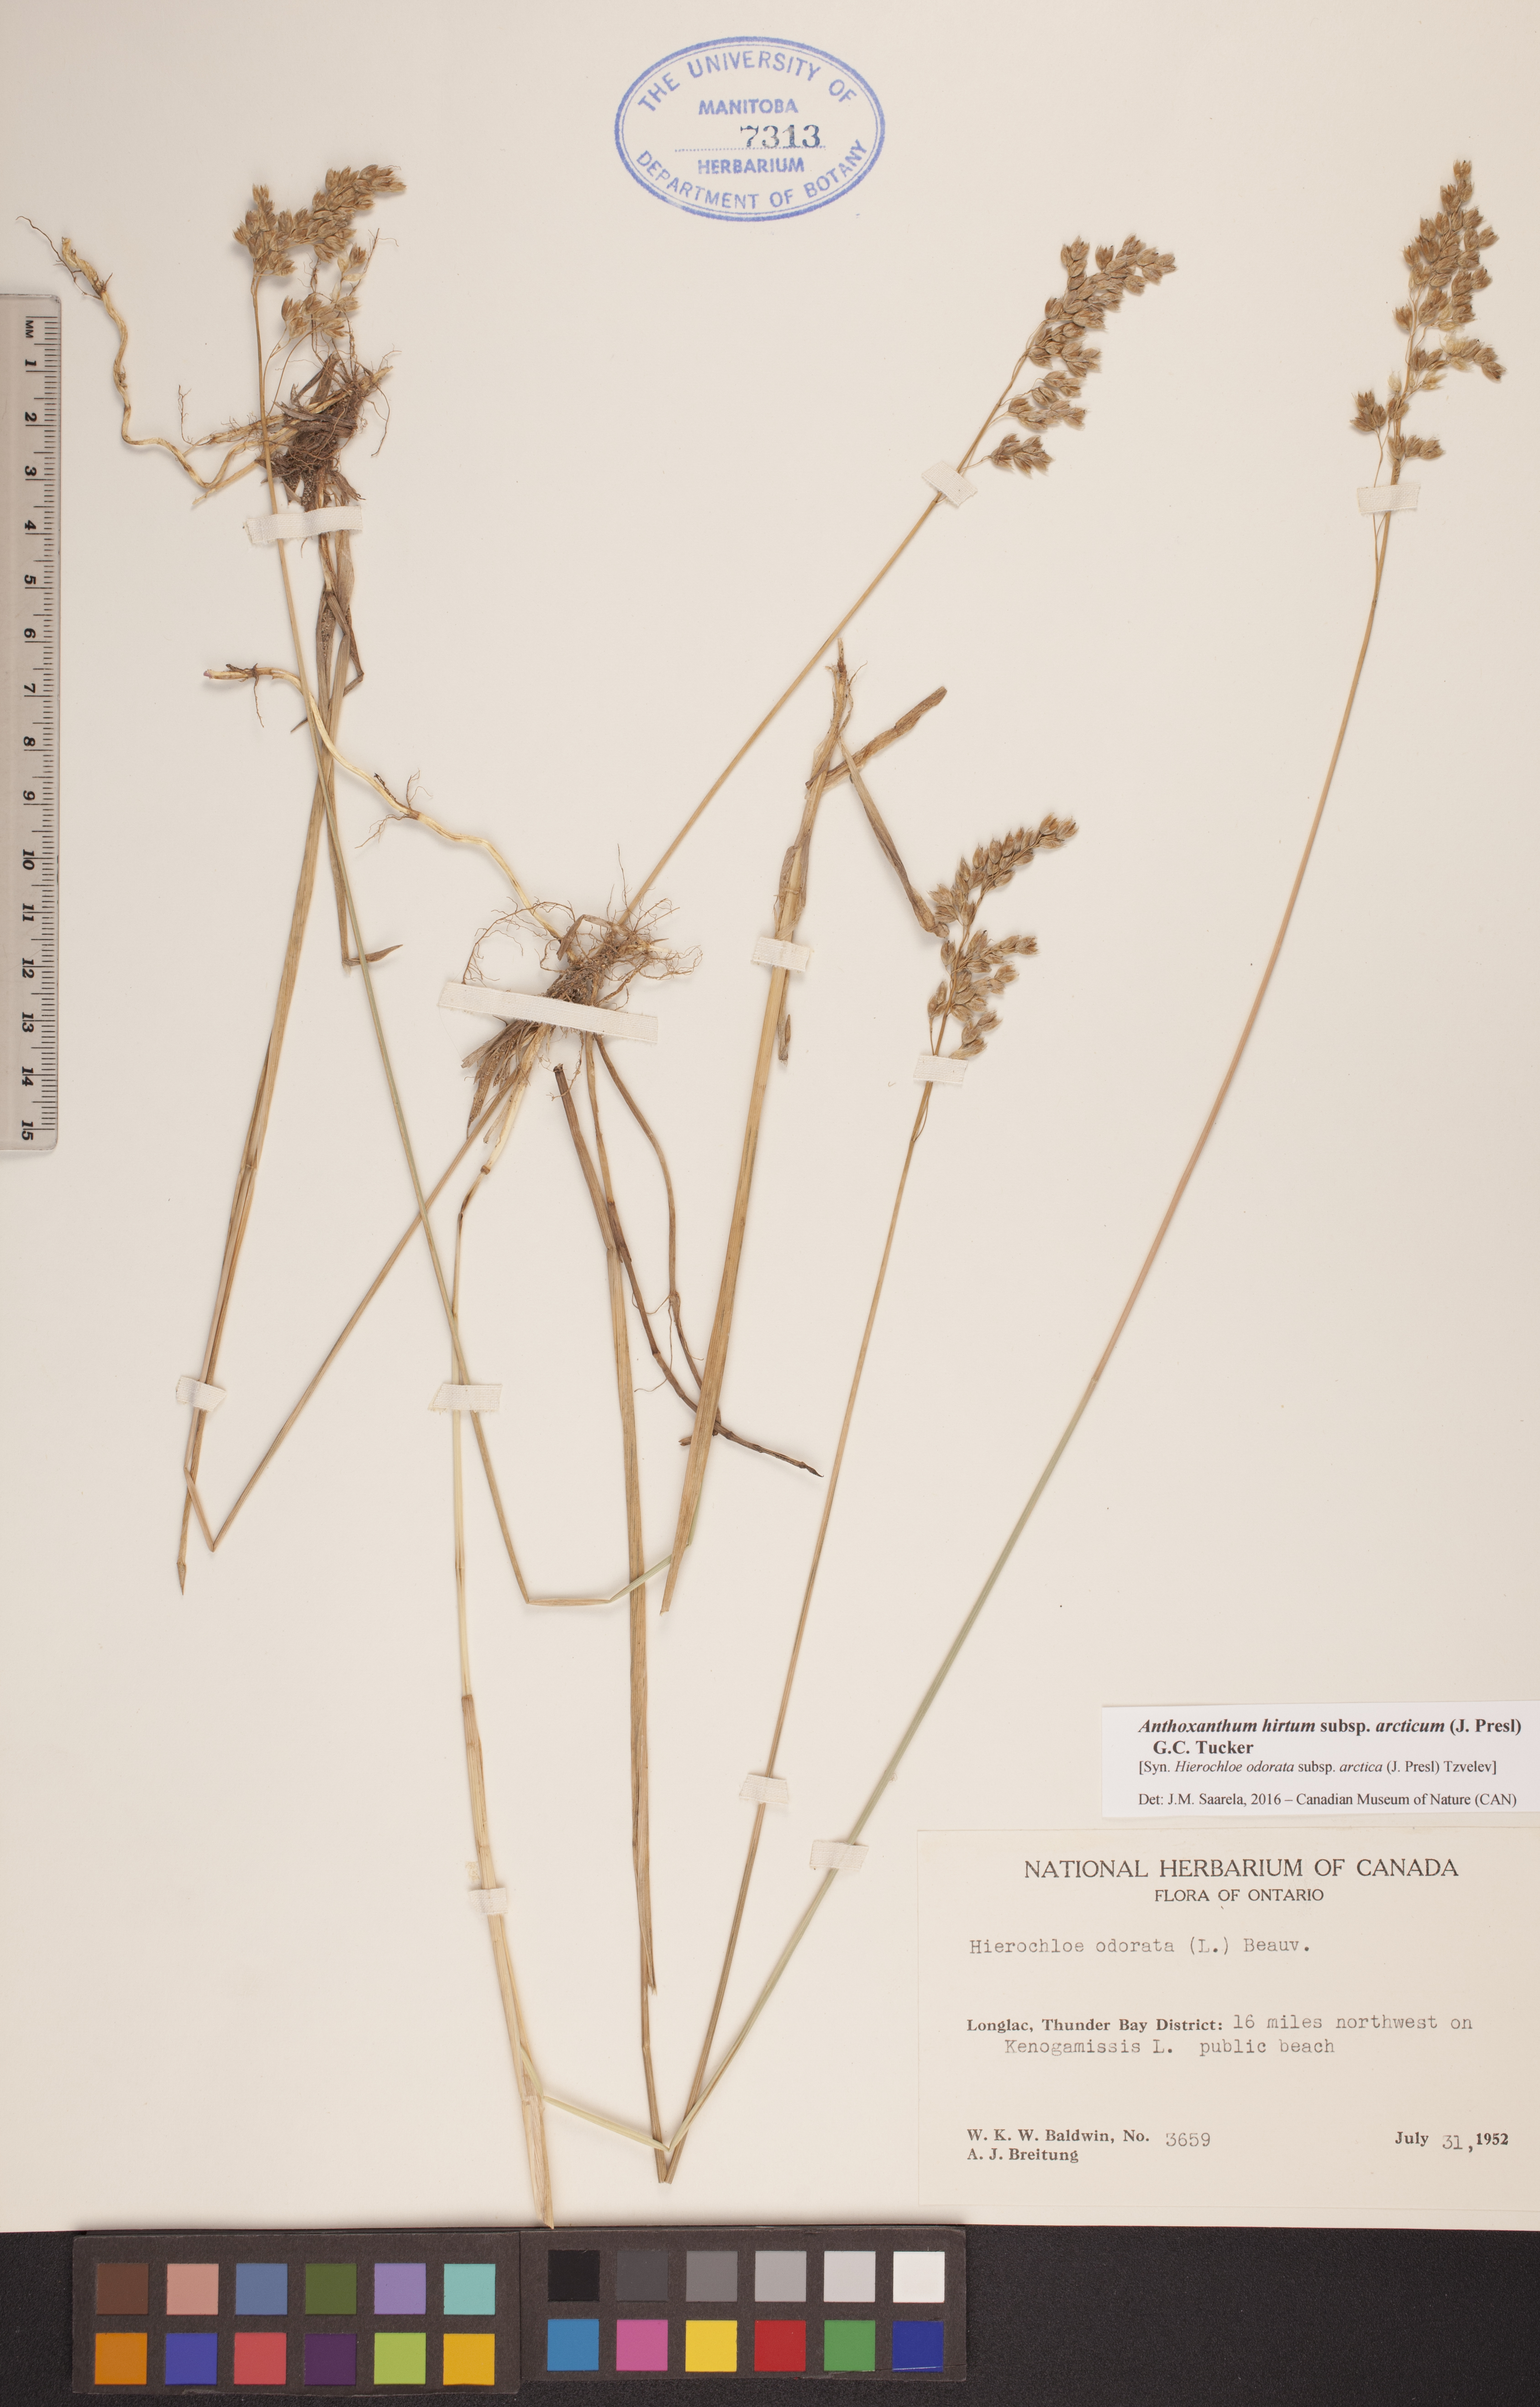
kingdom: Plantae
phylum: Tracheophyta
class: Liliopsida
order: Poales
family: Poaceae
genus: Anthoxanthum
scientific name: Anthoxanthum nitens
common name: Holy grass
